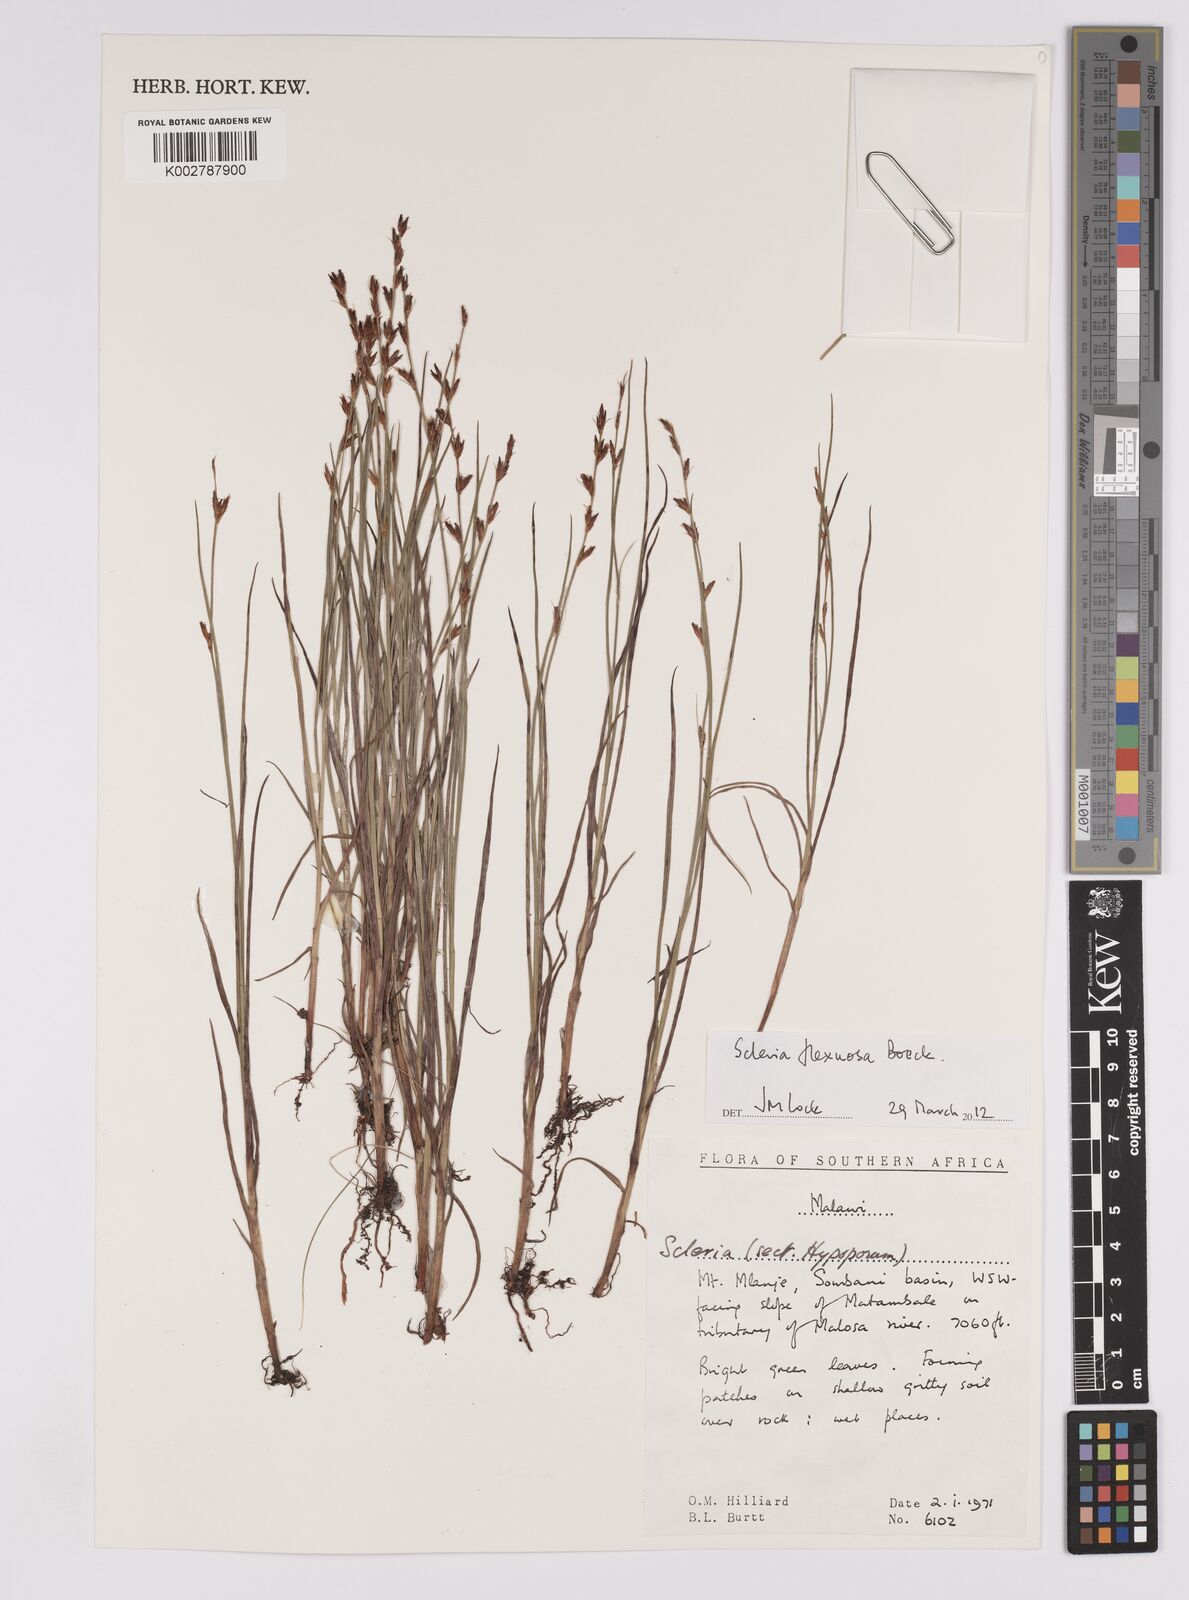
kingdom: Plantae
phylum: Tracheophyta
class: Liliopsida
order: Poales
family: Cyperaceae
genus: Scleria
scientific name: Scleria flexuosa
